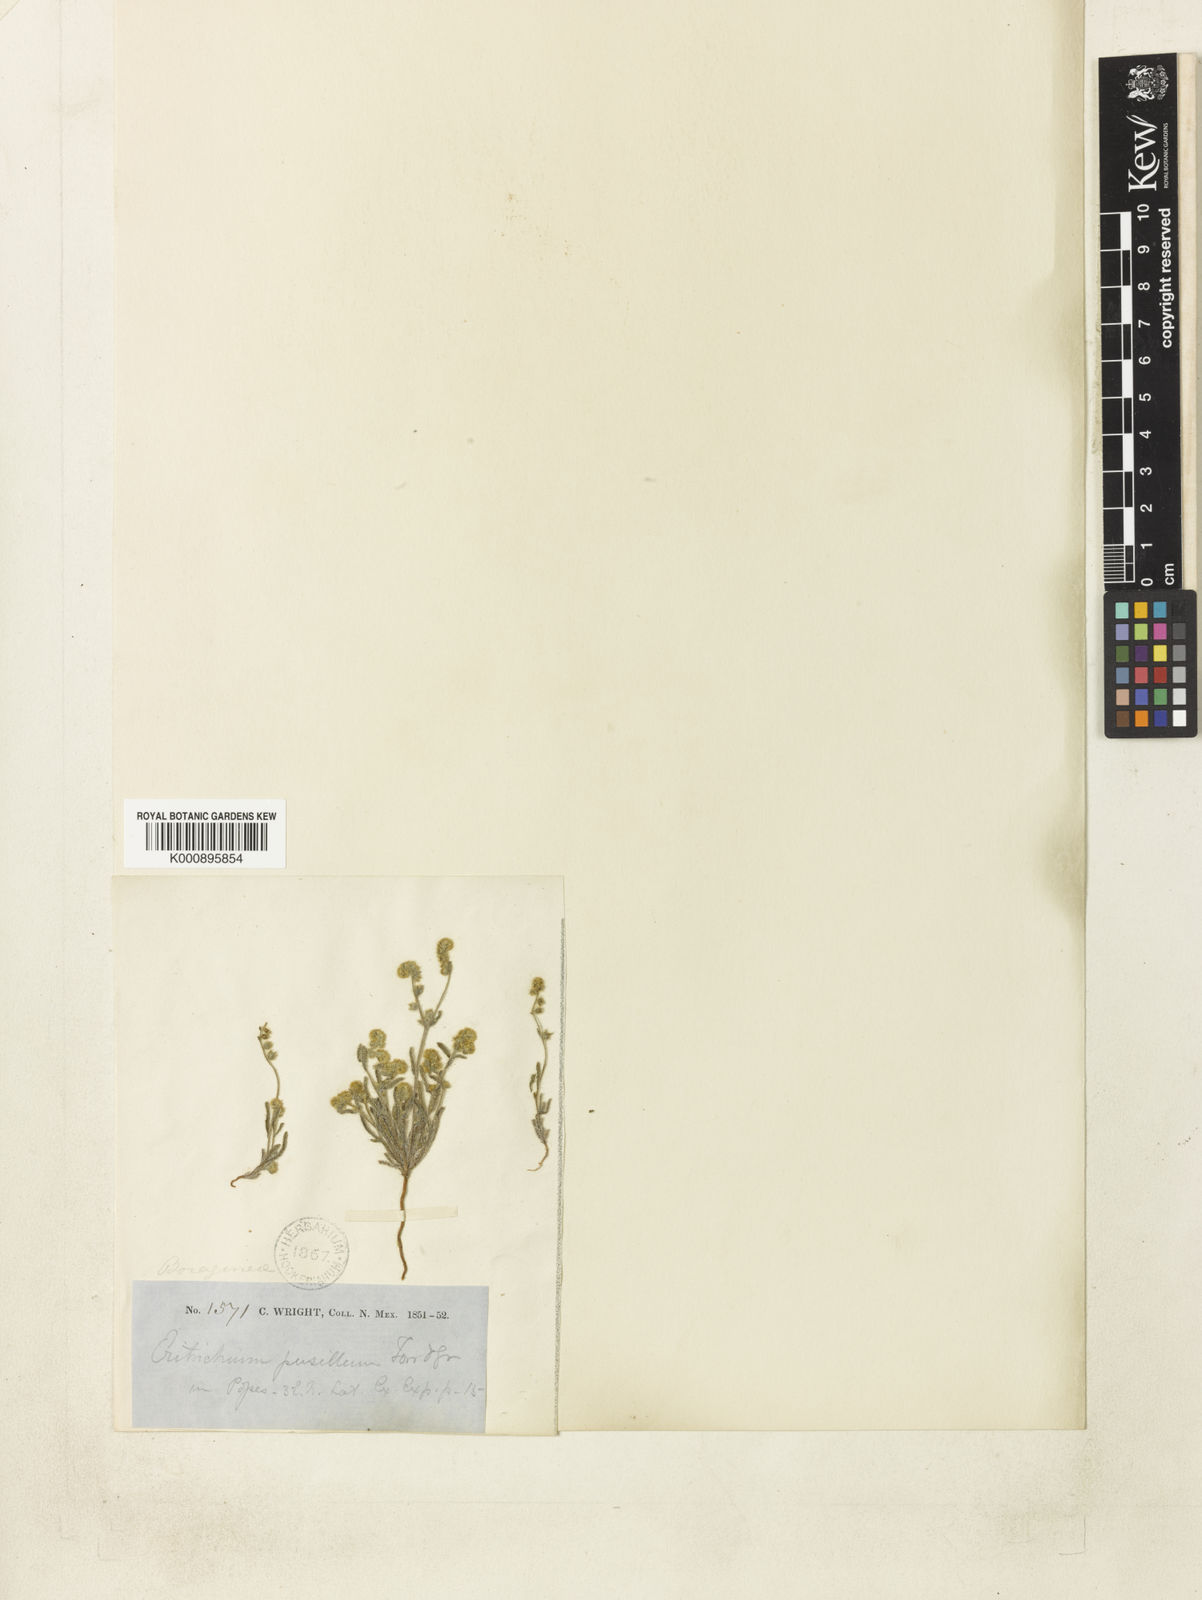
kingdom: Plantae
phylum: Tracheophyta
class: Magnoliopsida
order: Boraginales
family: Boraginaceae
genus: Johnstonella
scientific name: Johnstonella pusilla
